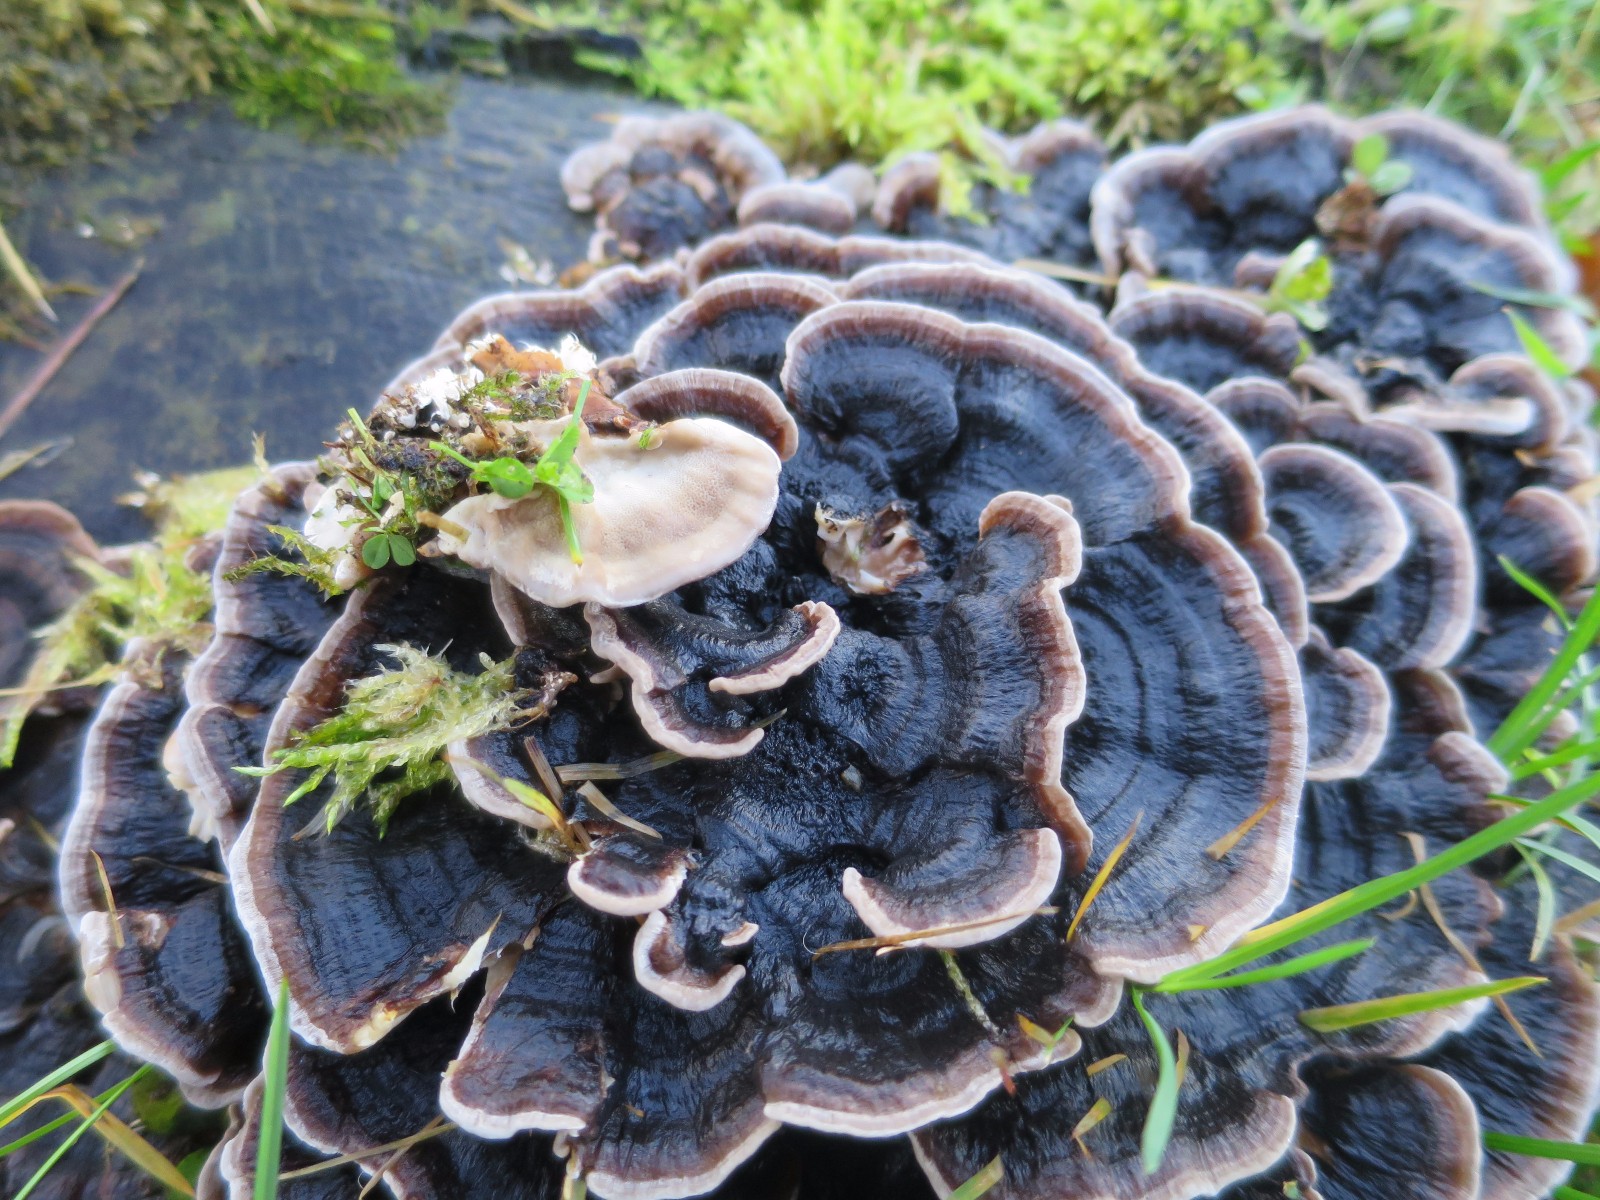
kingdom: Fungi
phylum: Basidiomycota
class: Agaricomycetes
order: Polyporales
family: Polyporaceae
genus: Trametes
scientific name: Trametes versicolor
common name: broget læderporesvamp
